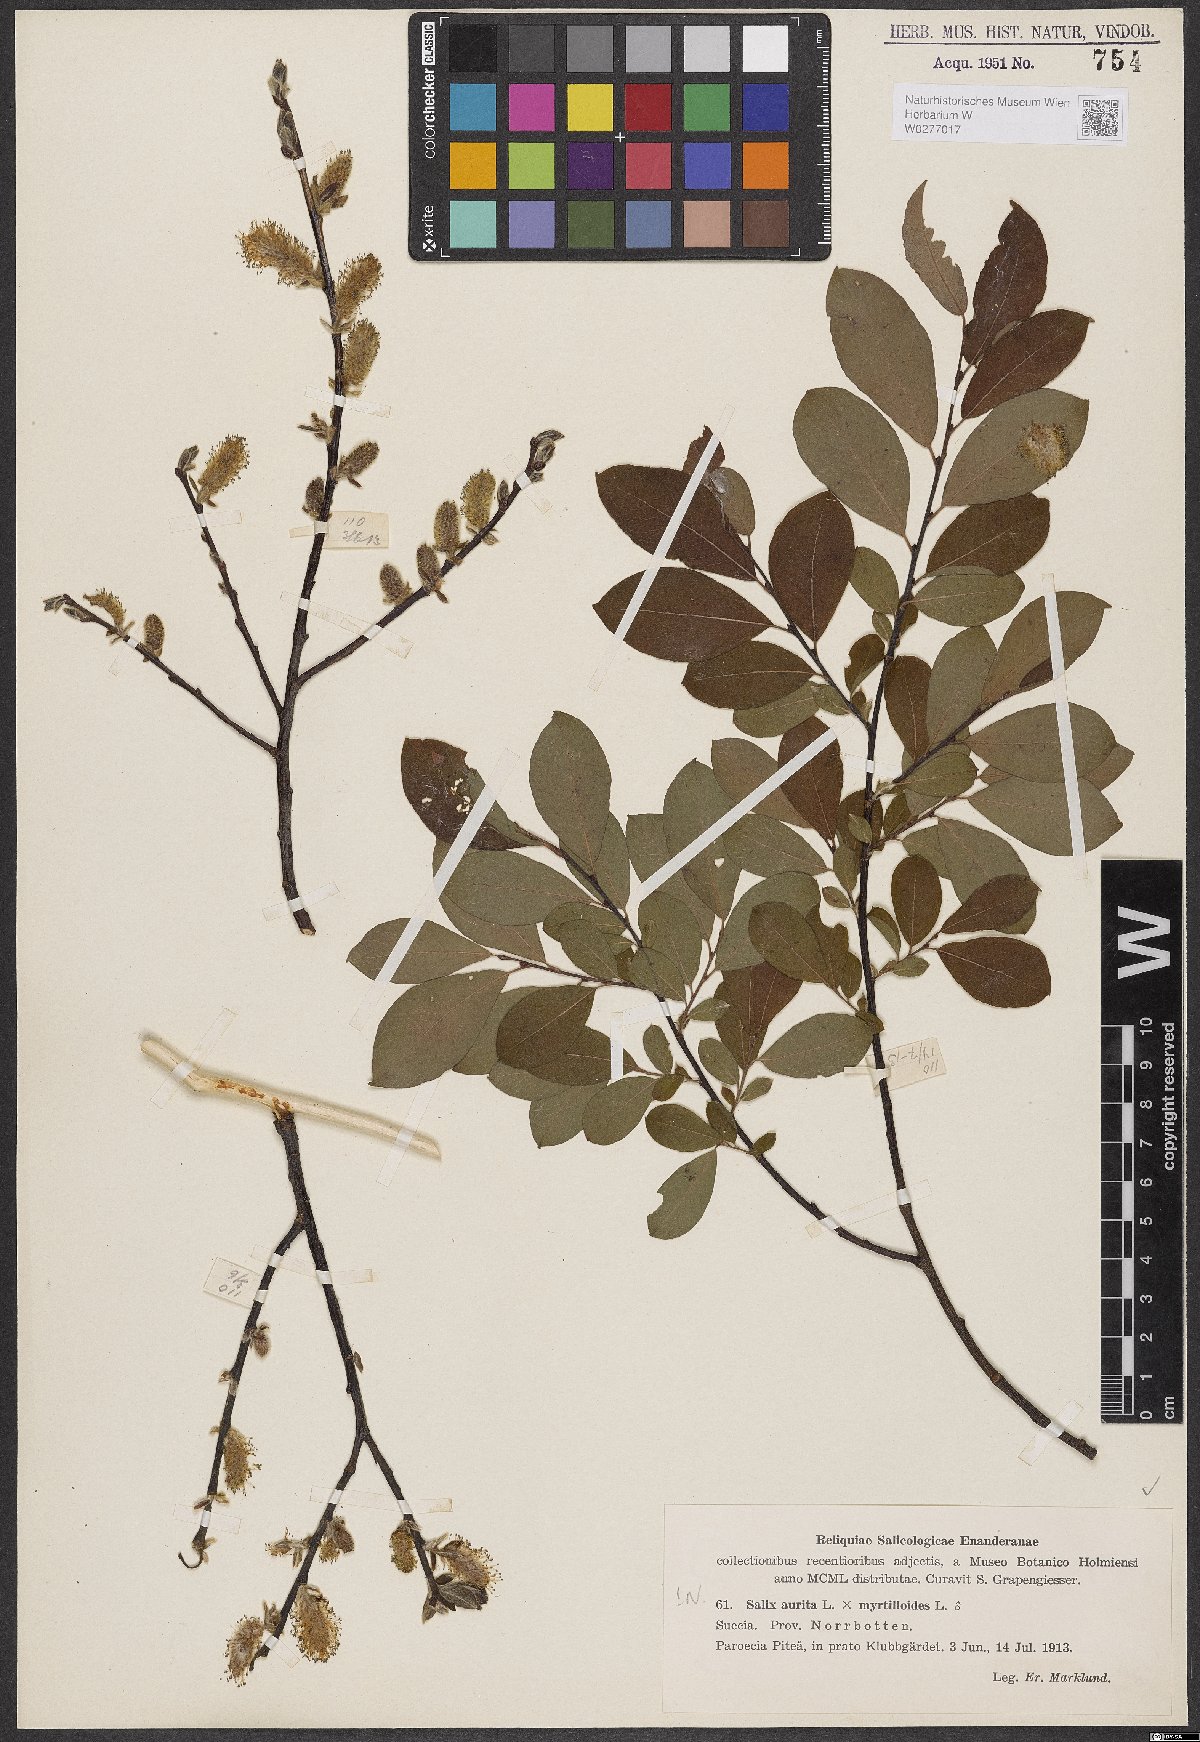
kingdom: Plantae
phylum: Tracheophyta
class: Magnoliopsida
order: Malpighiales
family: Salicaceae
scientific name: Salicaceae
